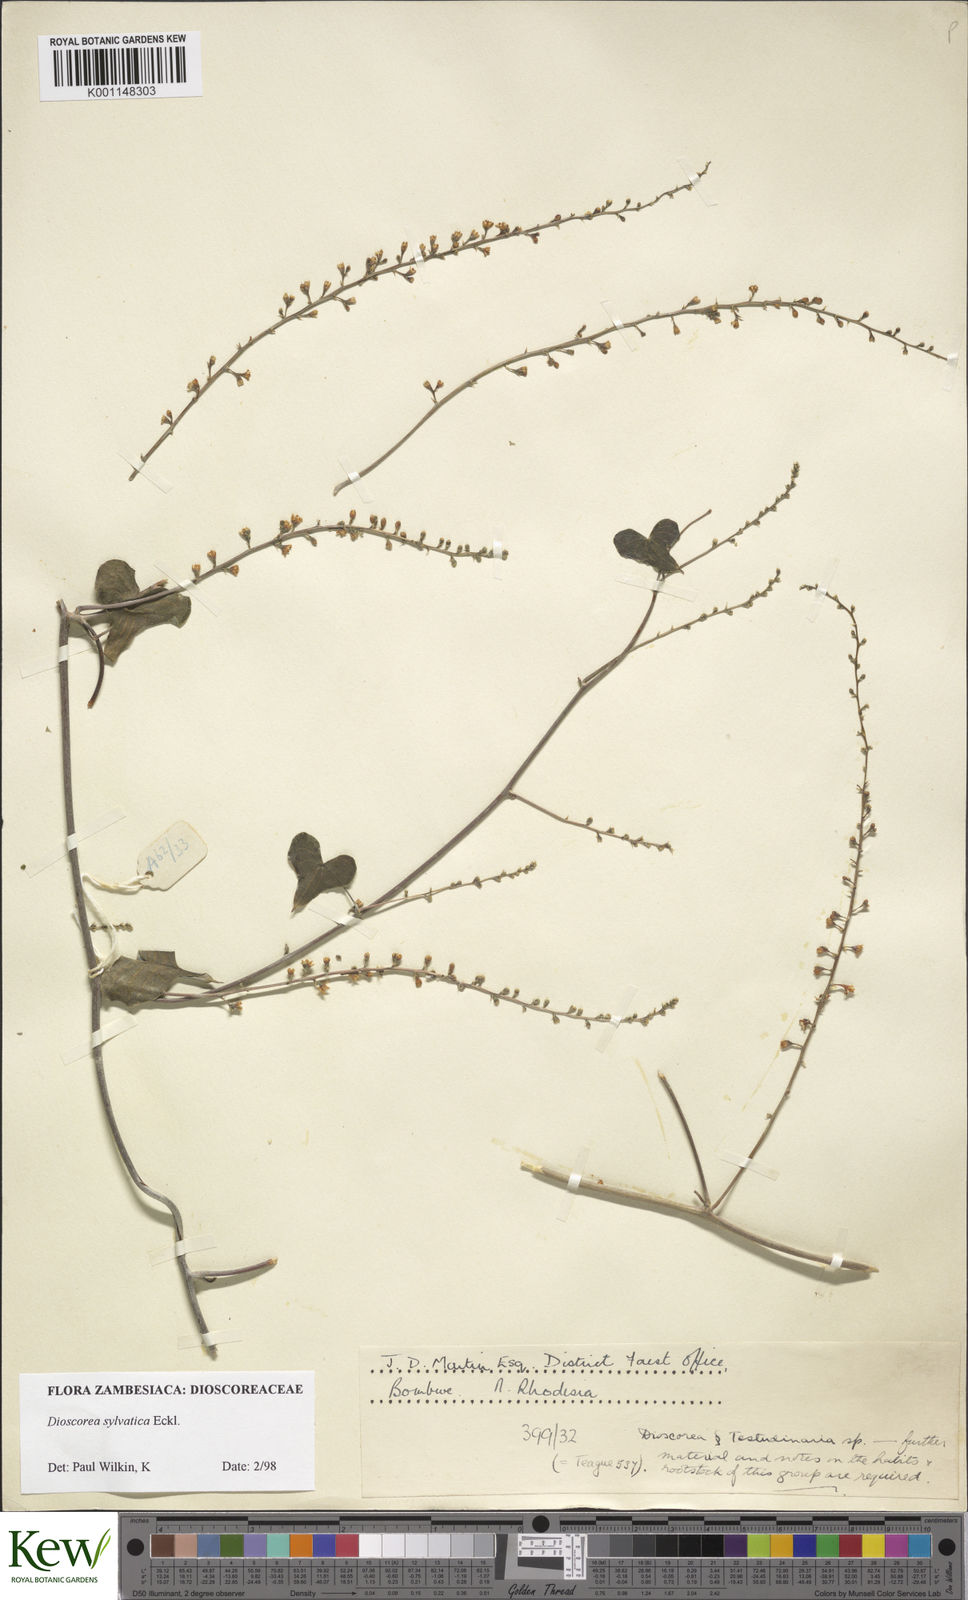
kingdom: Plantae
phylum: Tracheophyta
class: Liliopsida
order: Dioscoreales
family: Dioscoreaceae
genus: Dioscorea
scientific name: Dioscorea sylvatica
